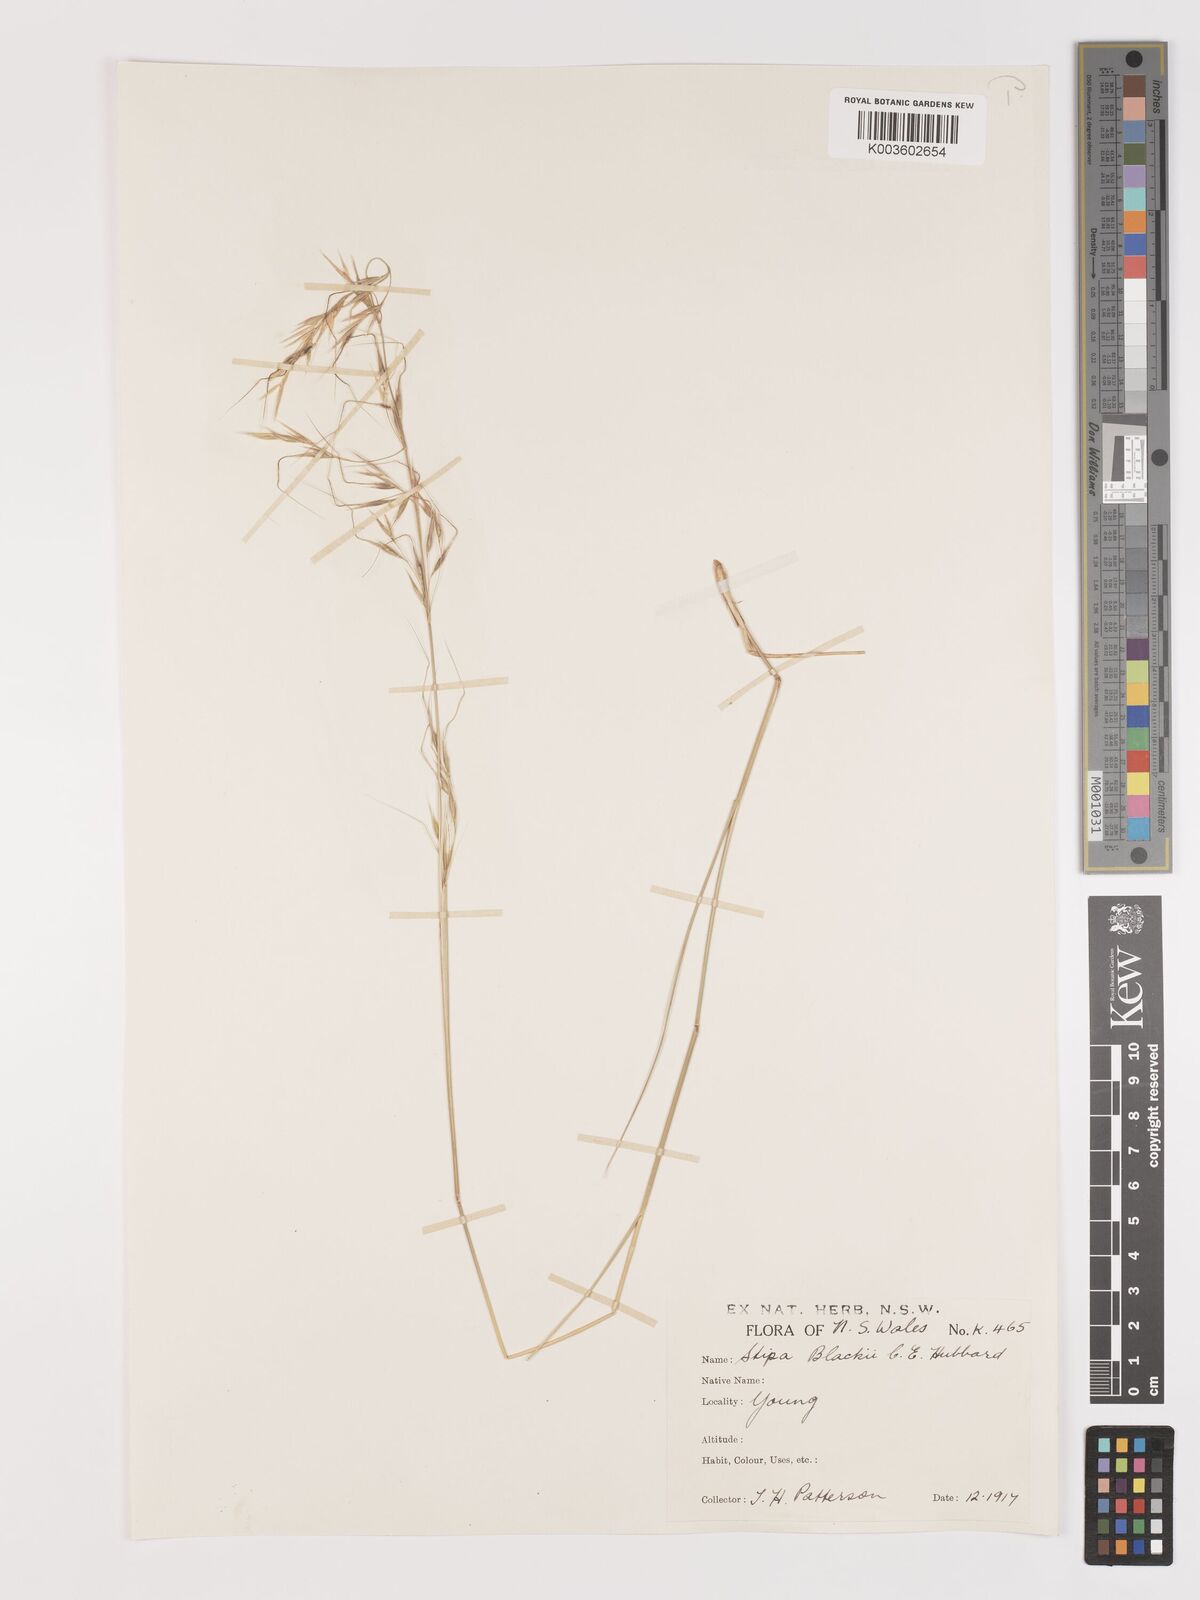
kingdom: Plantae
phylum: Tracheophyta
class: Liliopsida
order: Poales
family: Poaceae
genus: Austrostipa
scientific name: Austrostipa blackii
